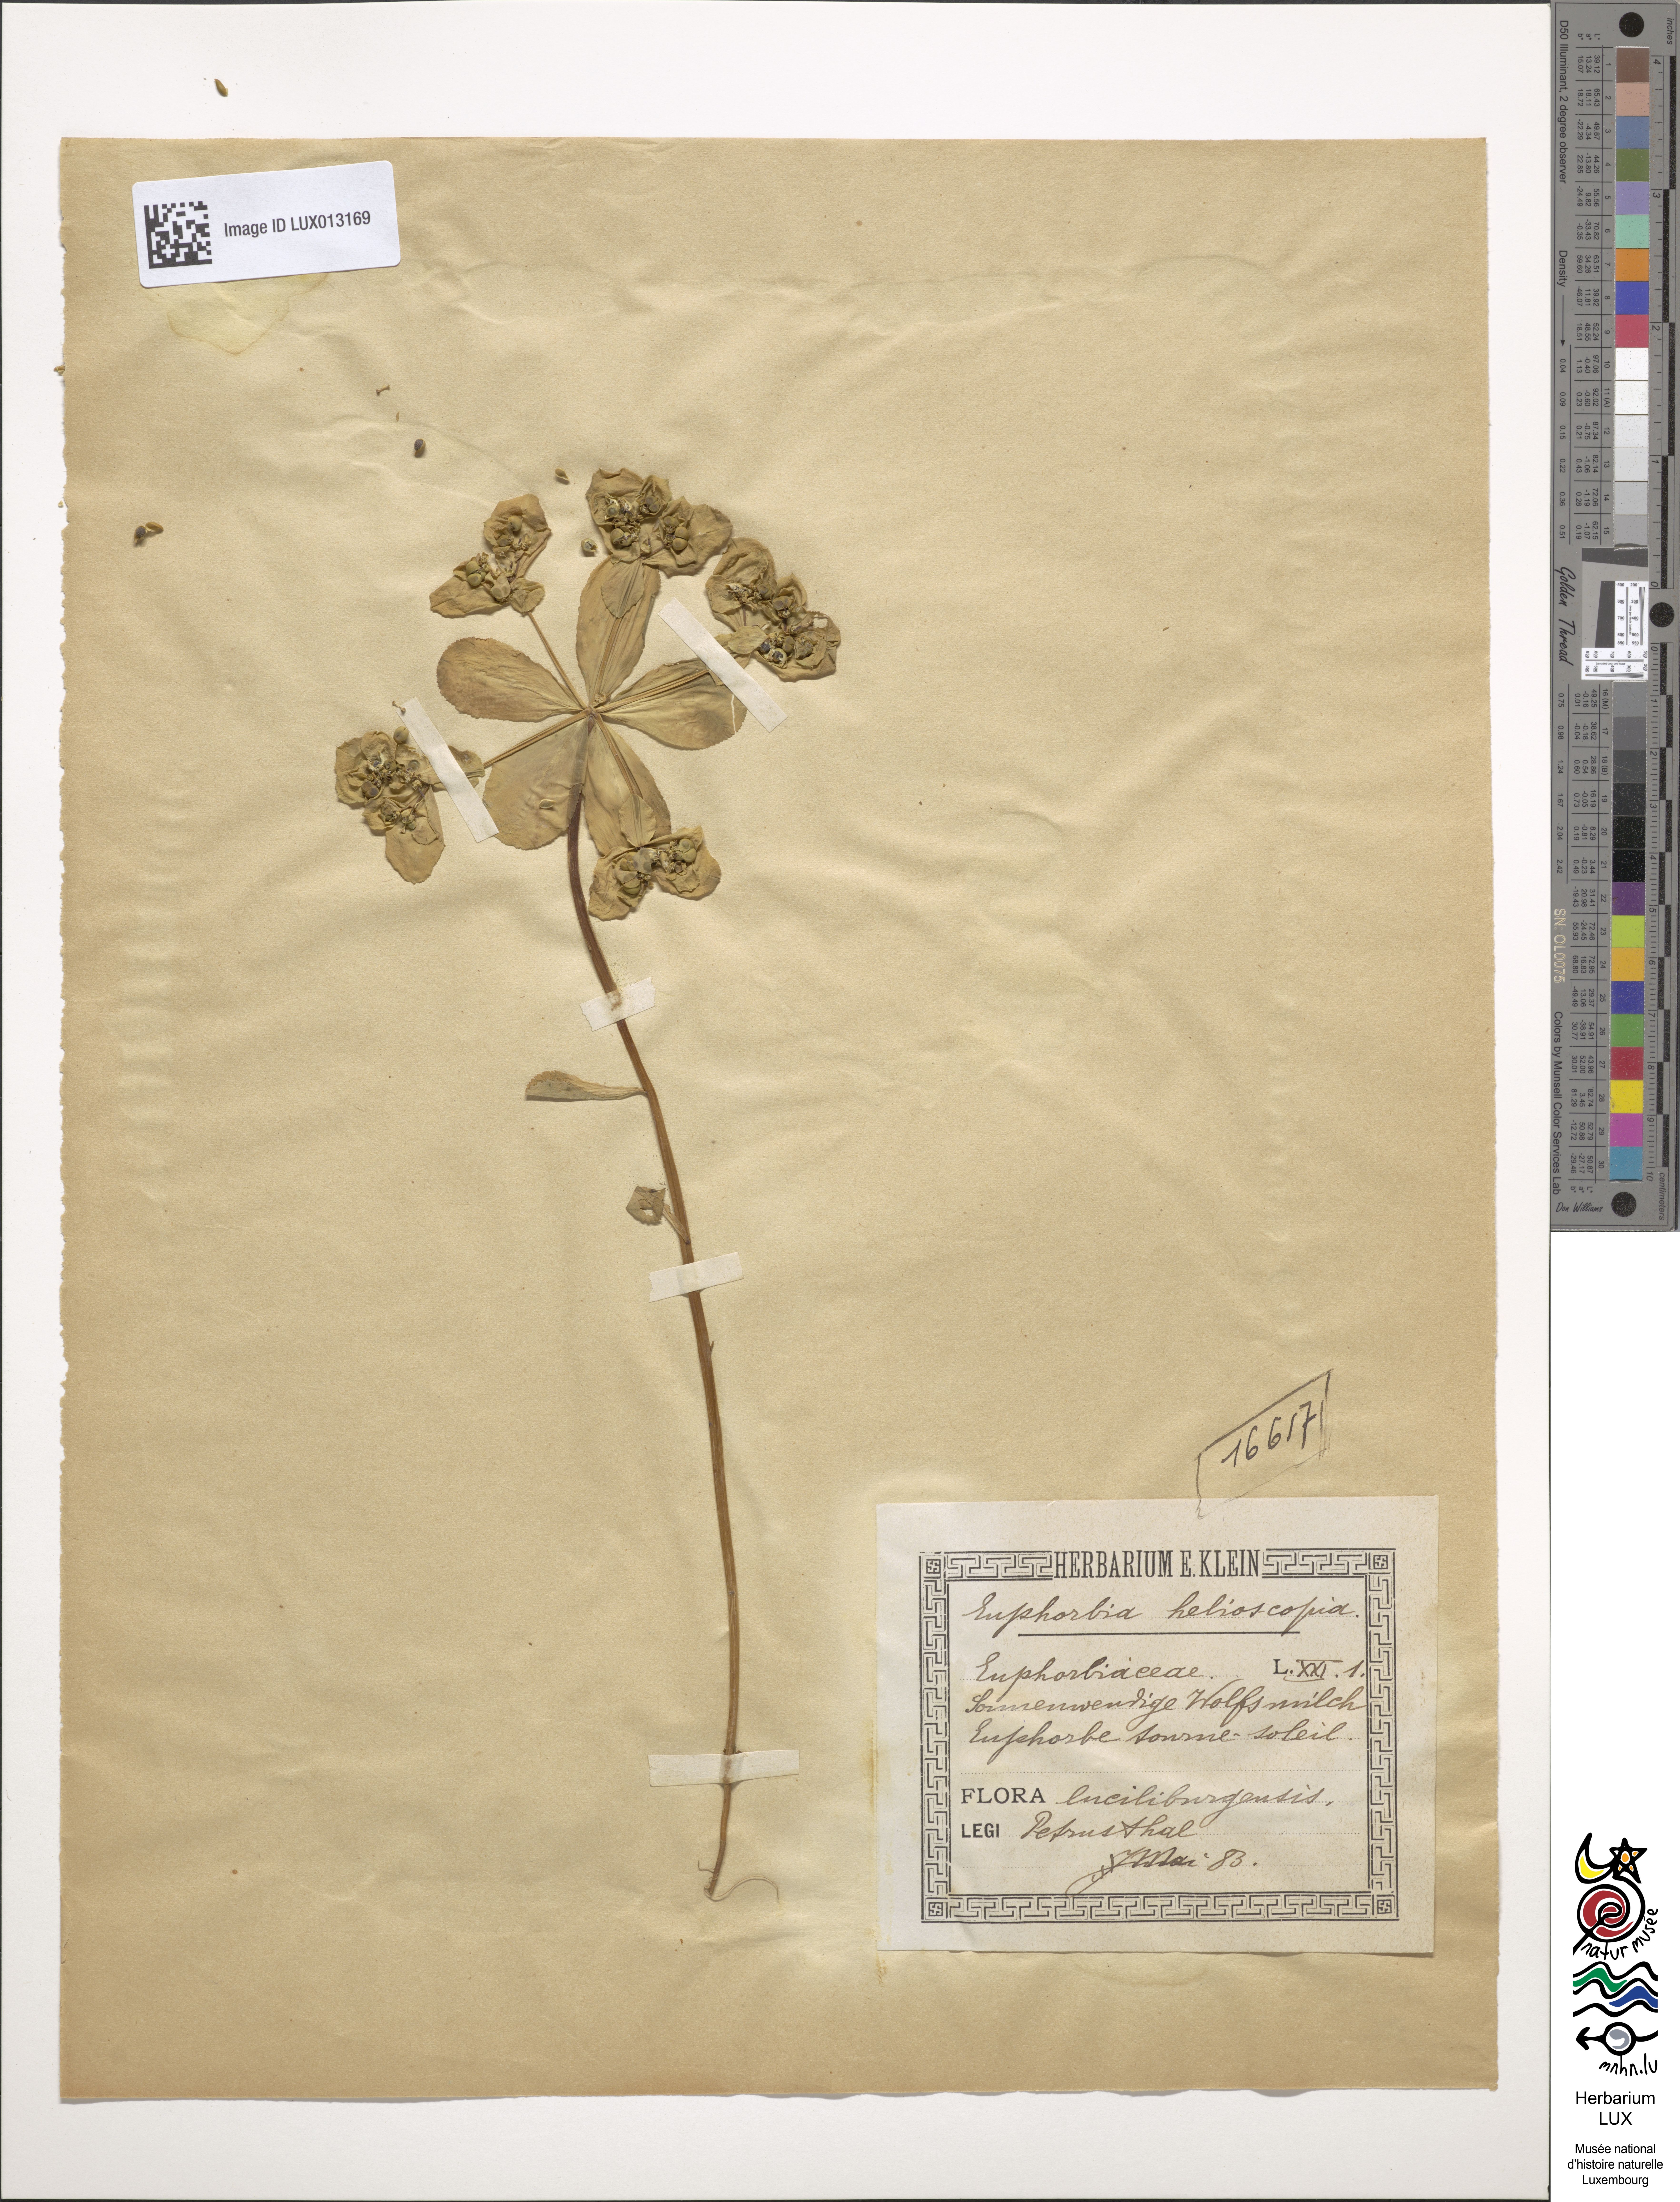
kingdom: Plantae
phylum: Tracheophyta
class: Magnoliopsida
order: Malpighiales
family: Euphorbiaceae
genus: Euphorbia
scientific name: Euphorbia helioscopia
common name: Sun spurge
